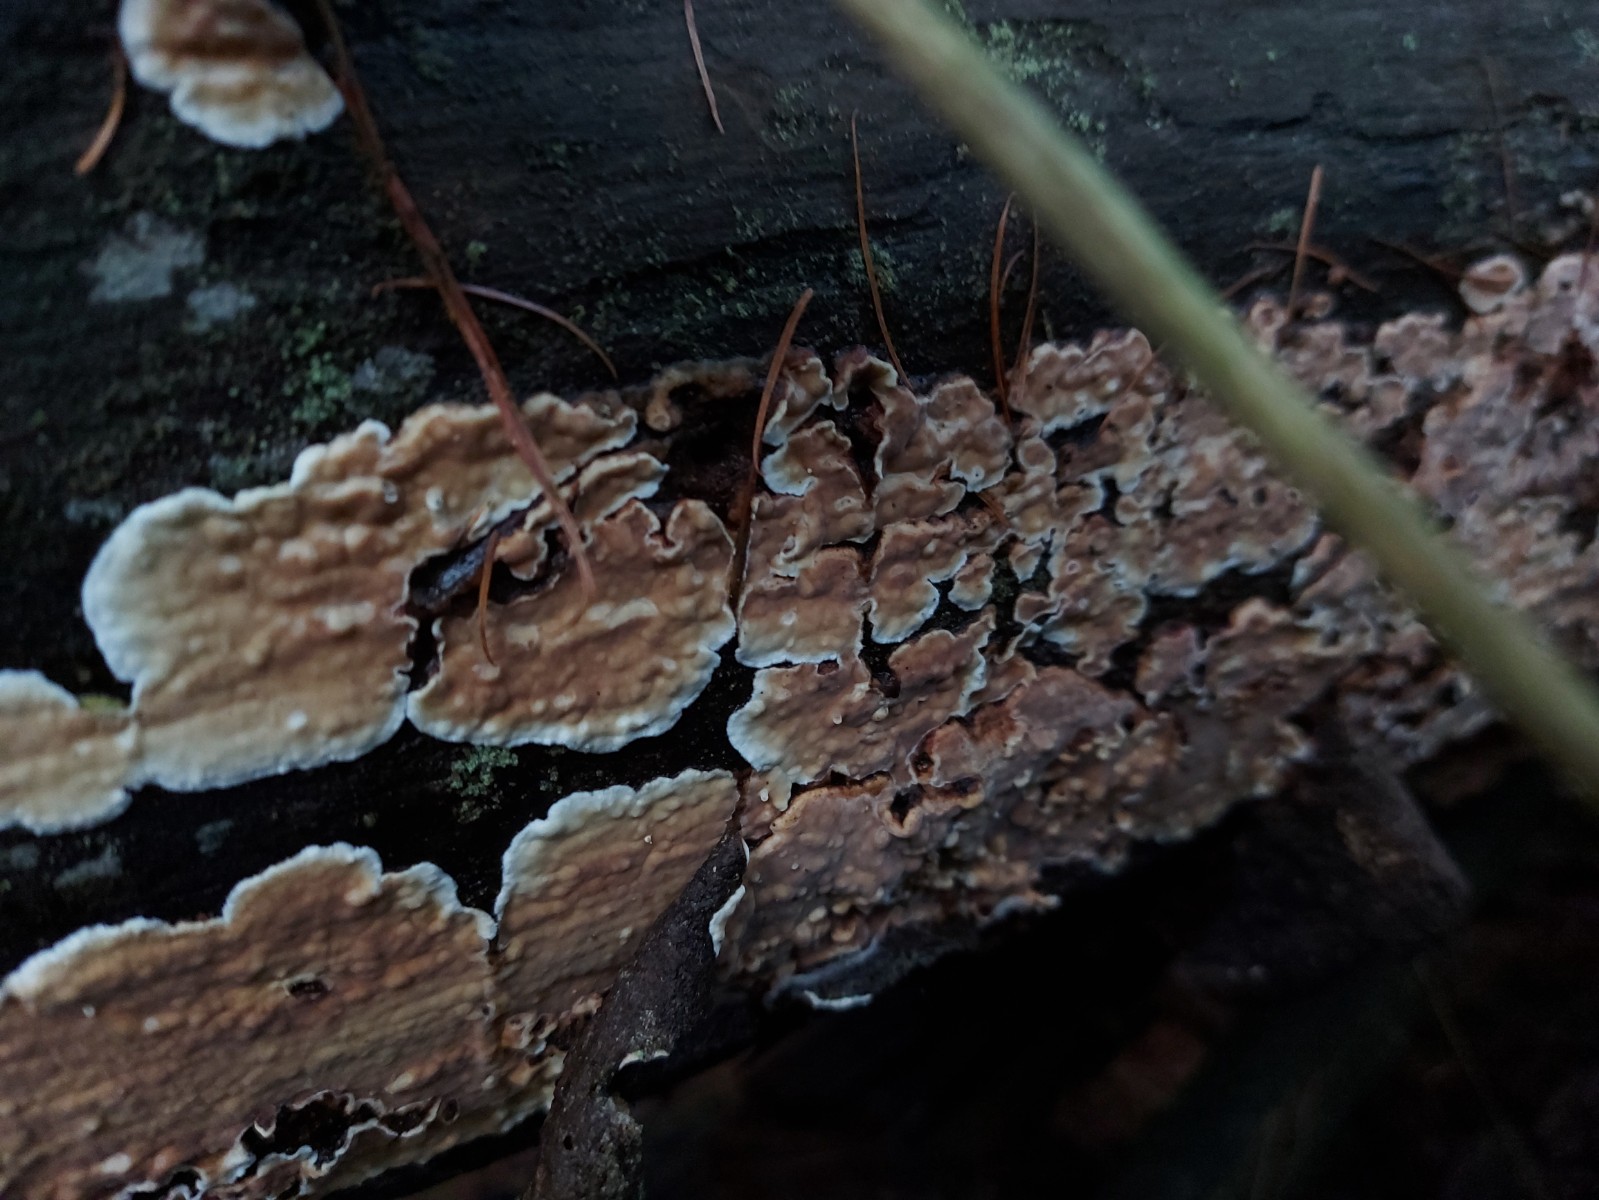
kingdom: Fungi
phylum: Basidiomycota
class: Agaricomycetes
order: Polyporales
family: Dacryobolaceae
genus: Dacryobolus
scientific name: Dacryobolus karstenii
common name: glat vulkanskorpe
